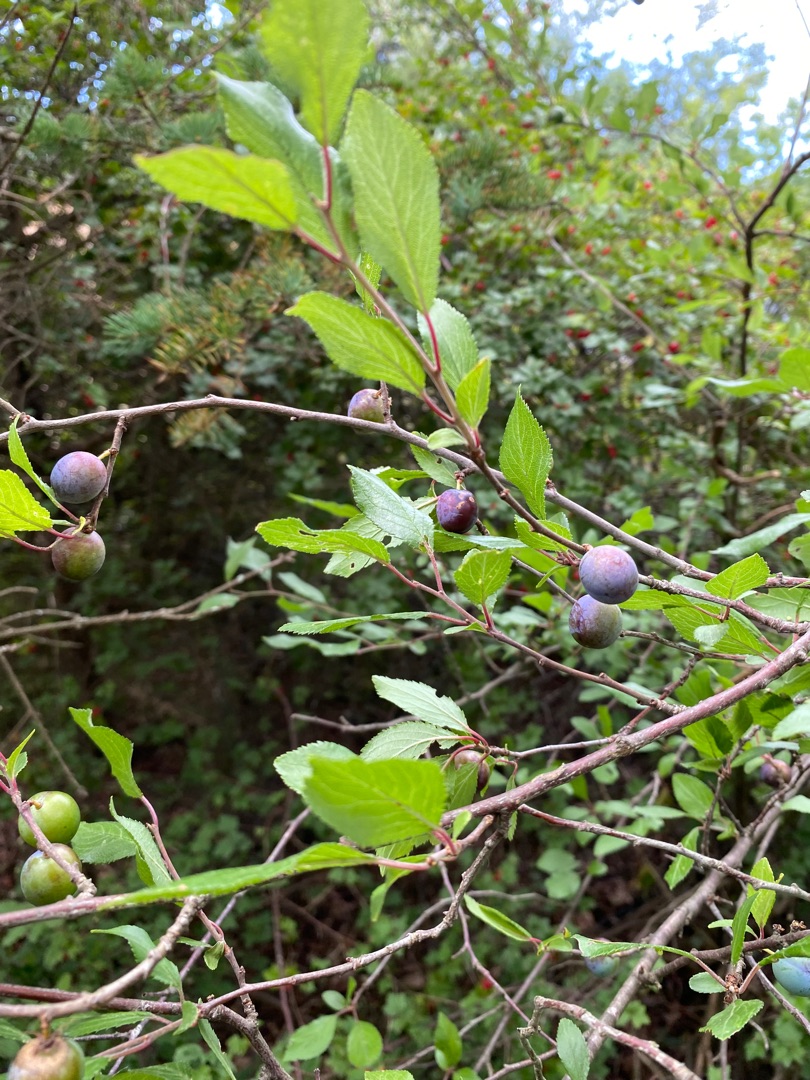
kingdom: Plantae
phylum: Tracheophyta
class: Magnoliopsida
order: Rosales
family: Rosaceae
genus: Prunus
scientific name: Prunus spinosa
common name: Slåen
